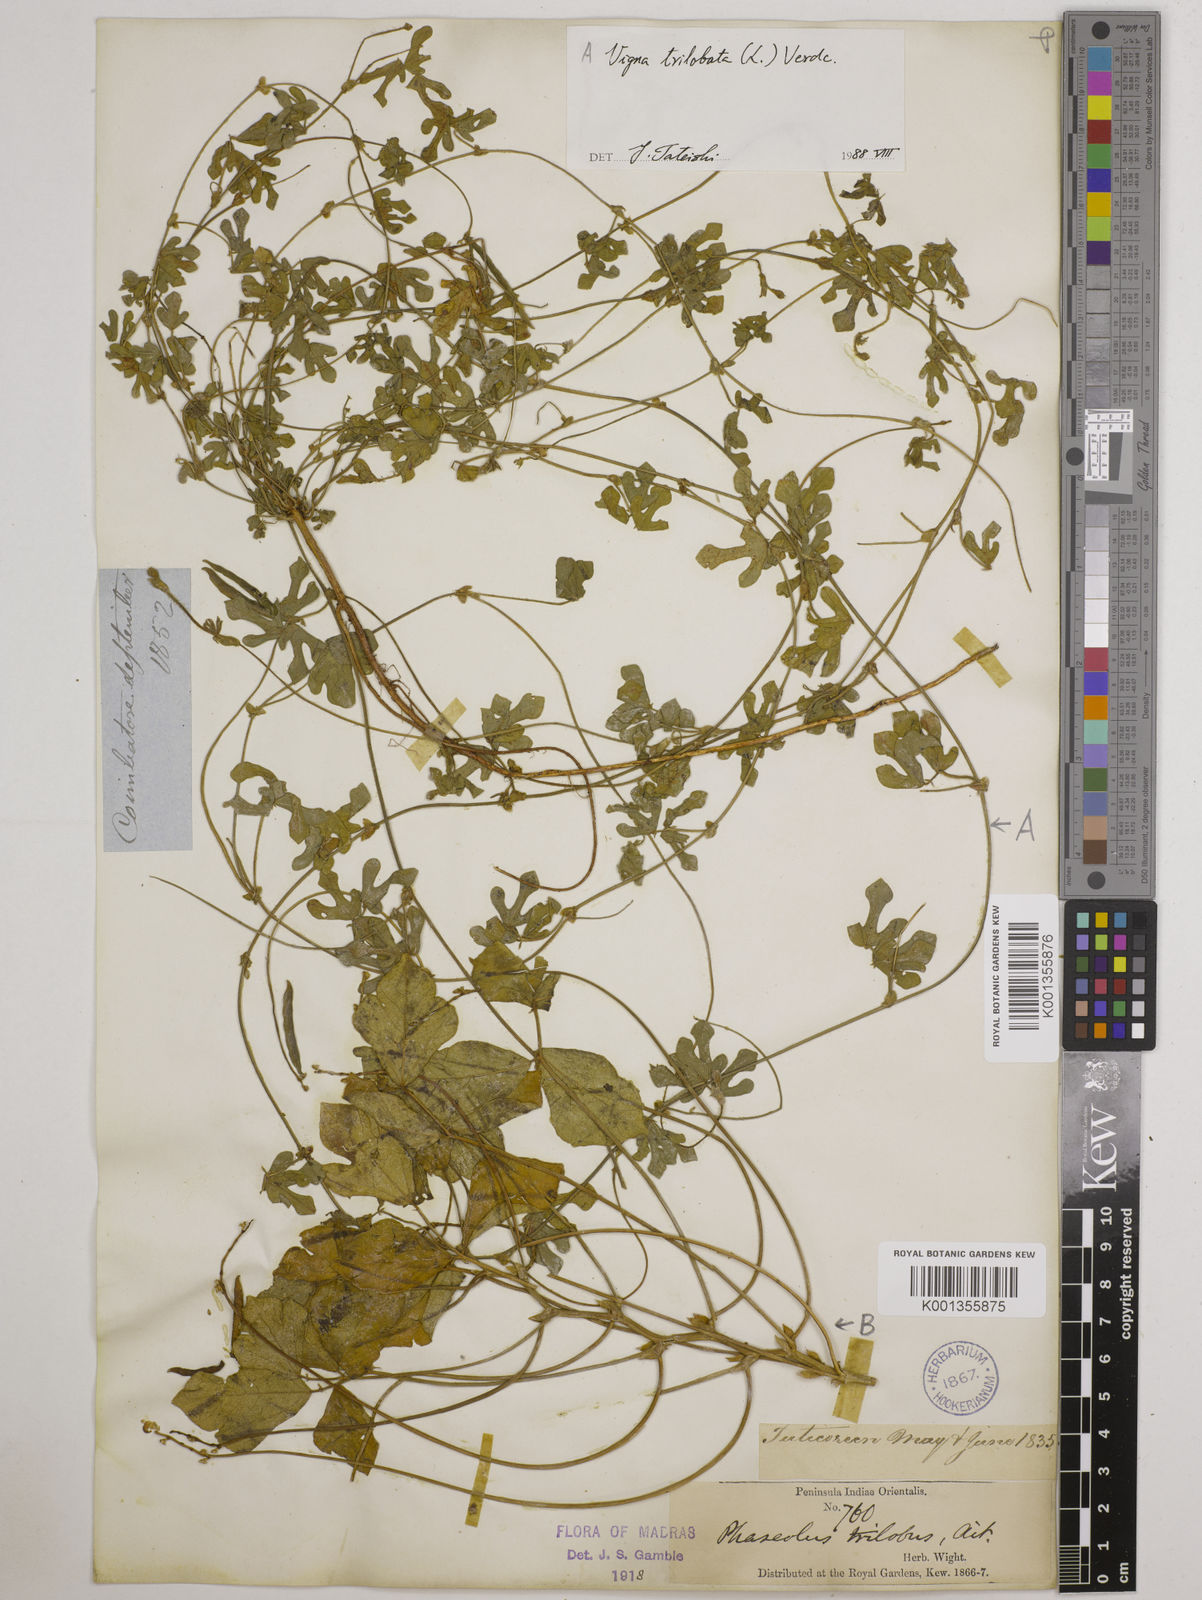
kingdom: Plantae
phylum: Tracheophyta
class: Magnoliopsida
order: Fabales
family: Fabaceae
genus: Vigna
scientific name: Vigna trilobata
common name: Jungli-bean
